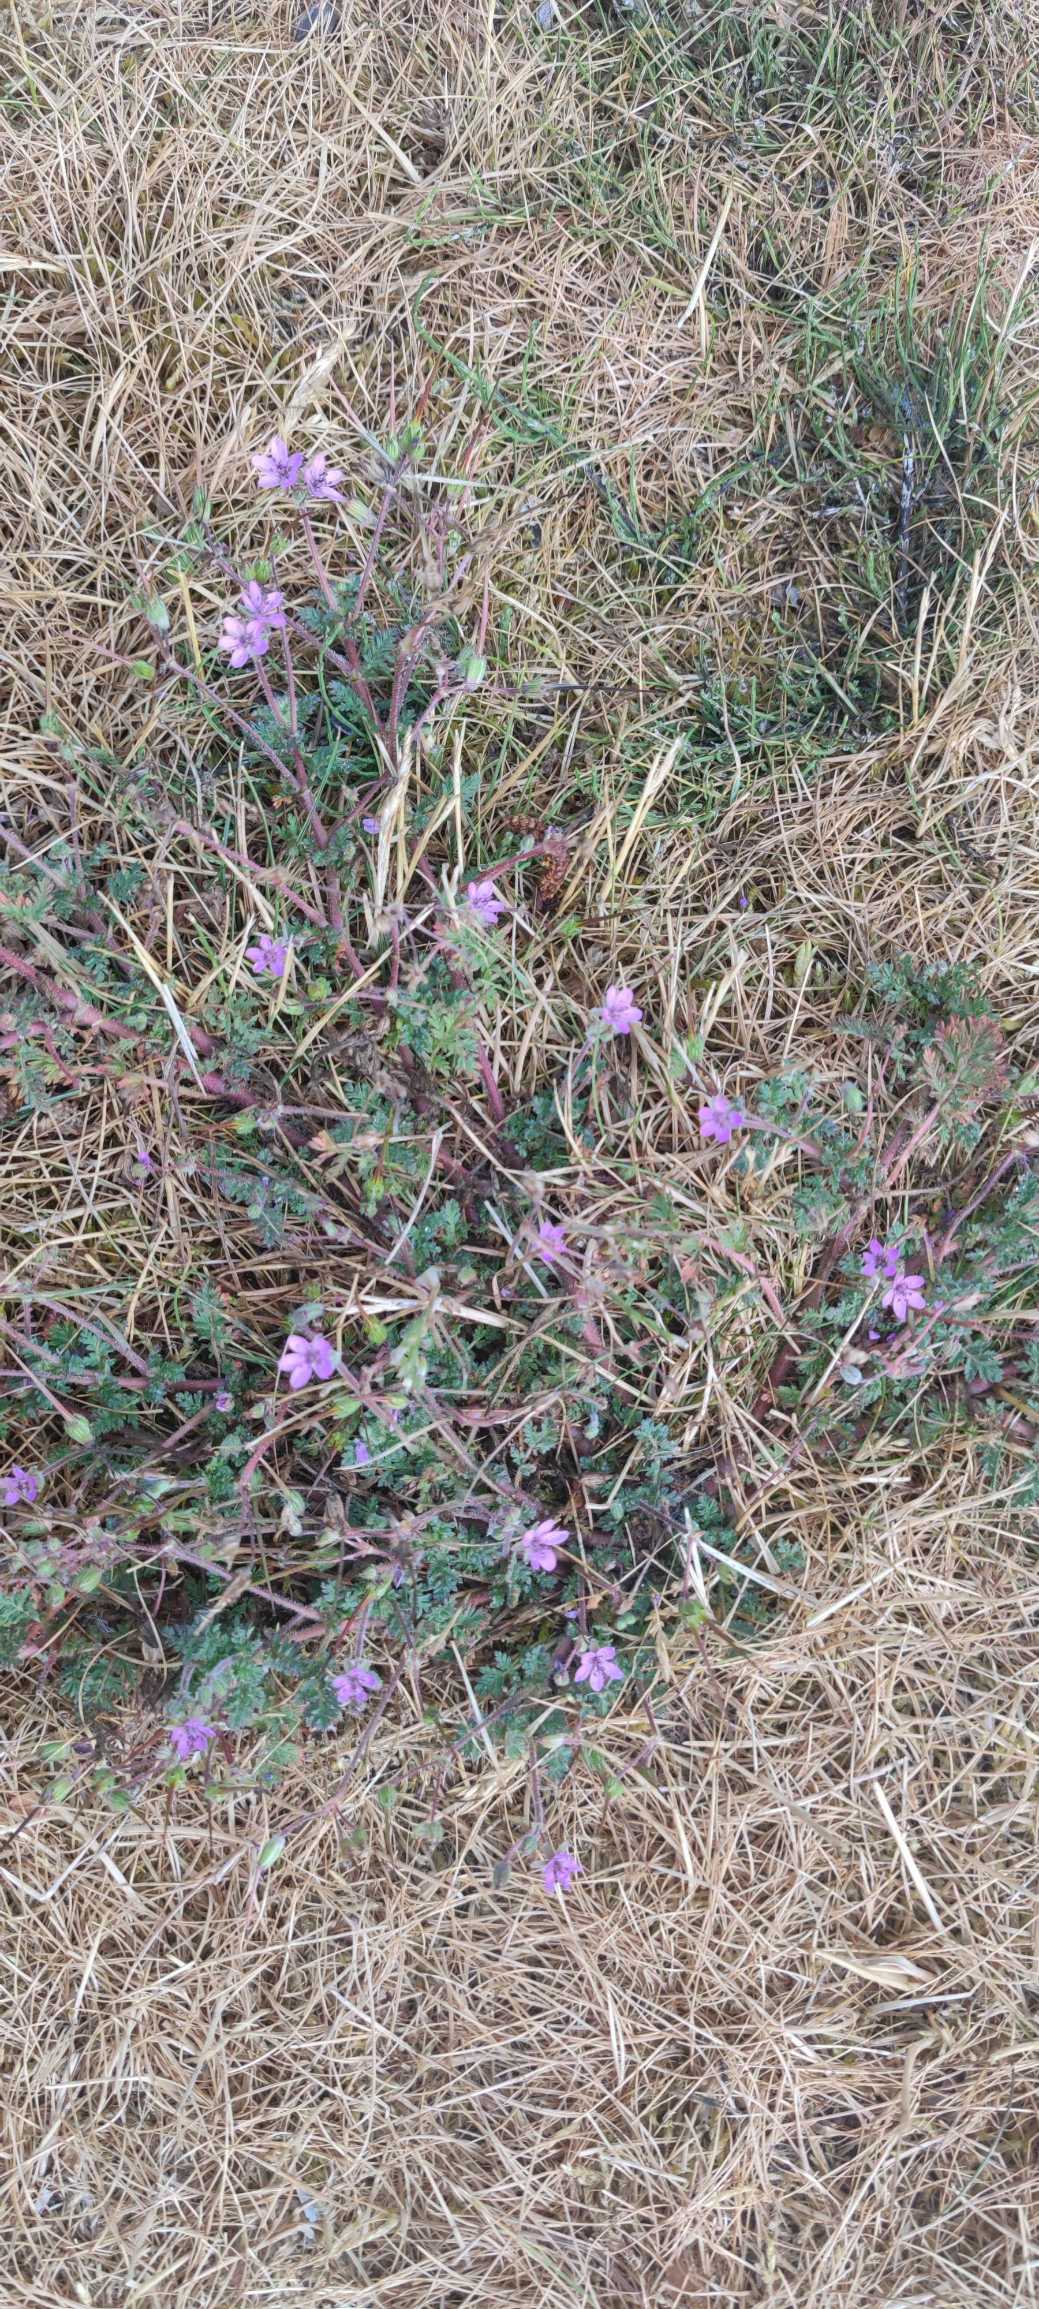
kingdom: Plantae
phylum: Tracheophyta
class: Magnoliopsida
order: Geraniales
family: Geraniaceae
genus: Erodium
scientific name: Erodium cicutarium
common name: Hejrenæb
